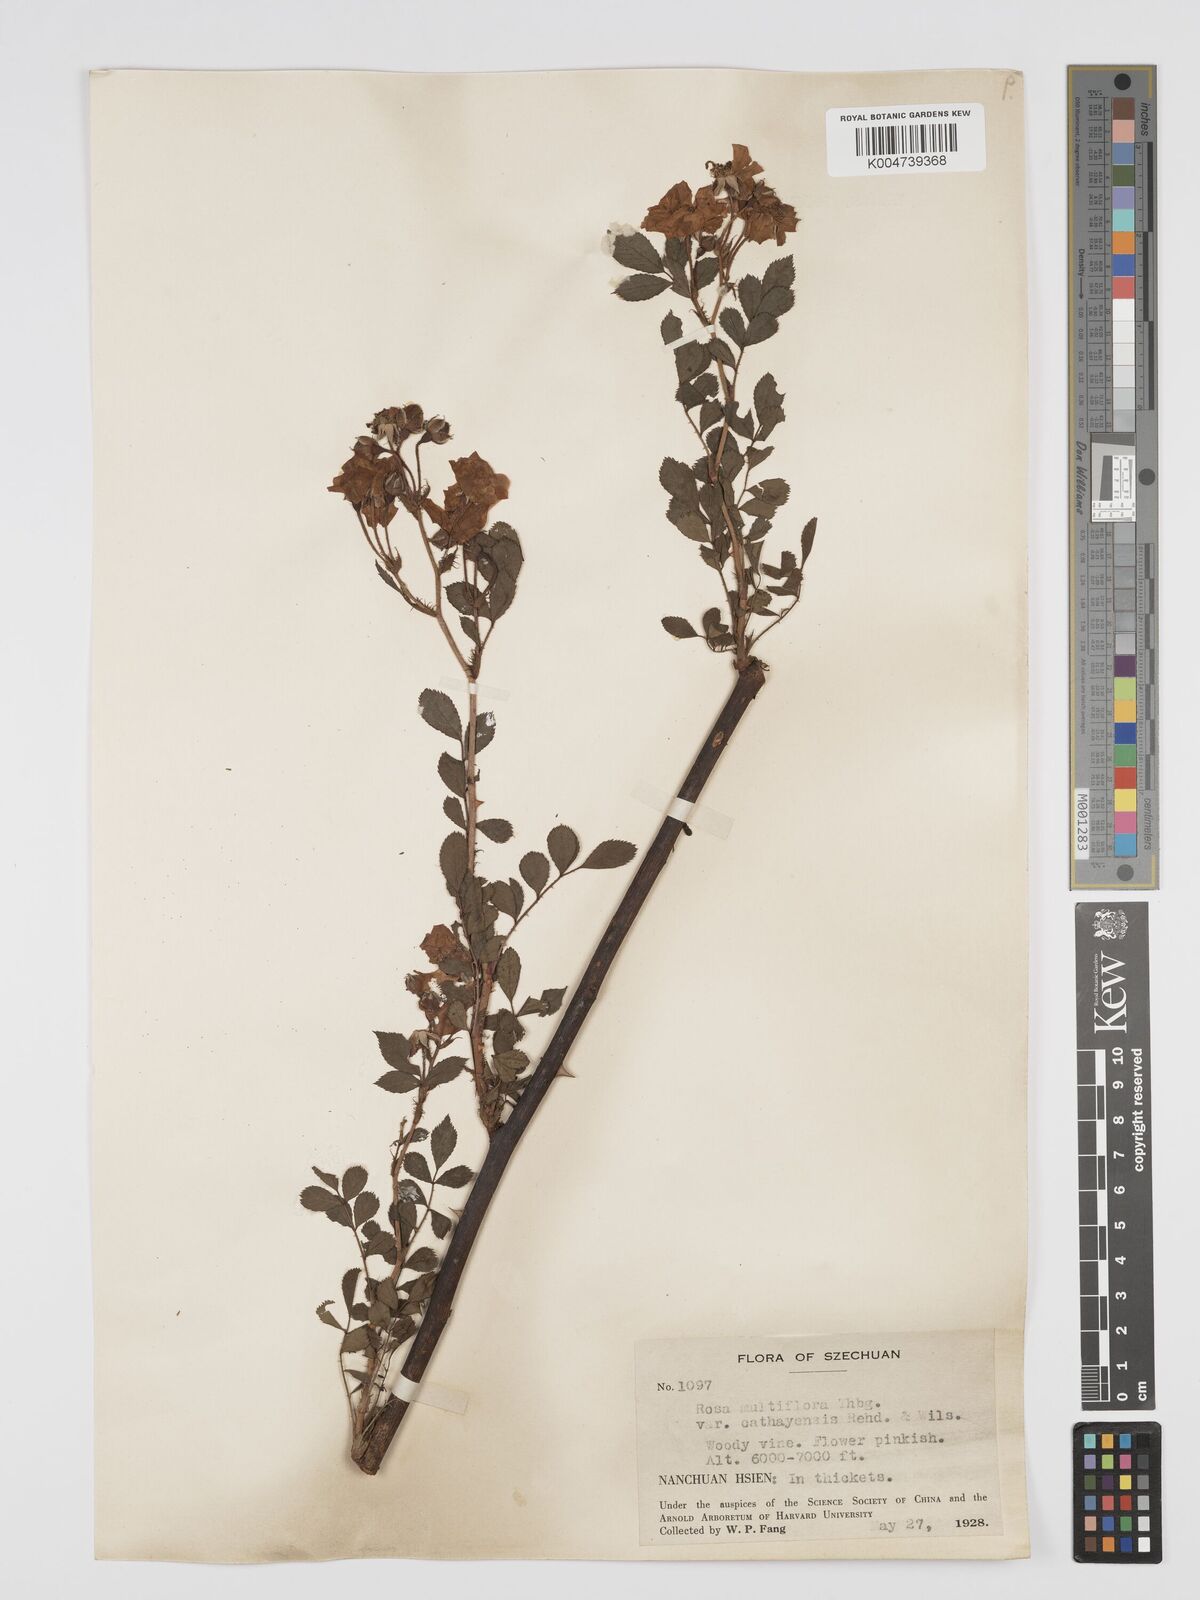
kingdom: Plantae
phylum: Tracheophyta
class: Magnoliopsida
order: Rosales
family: Rosaceae
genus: Rosa
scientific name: Rosa
